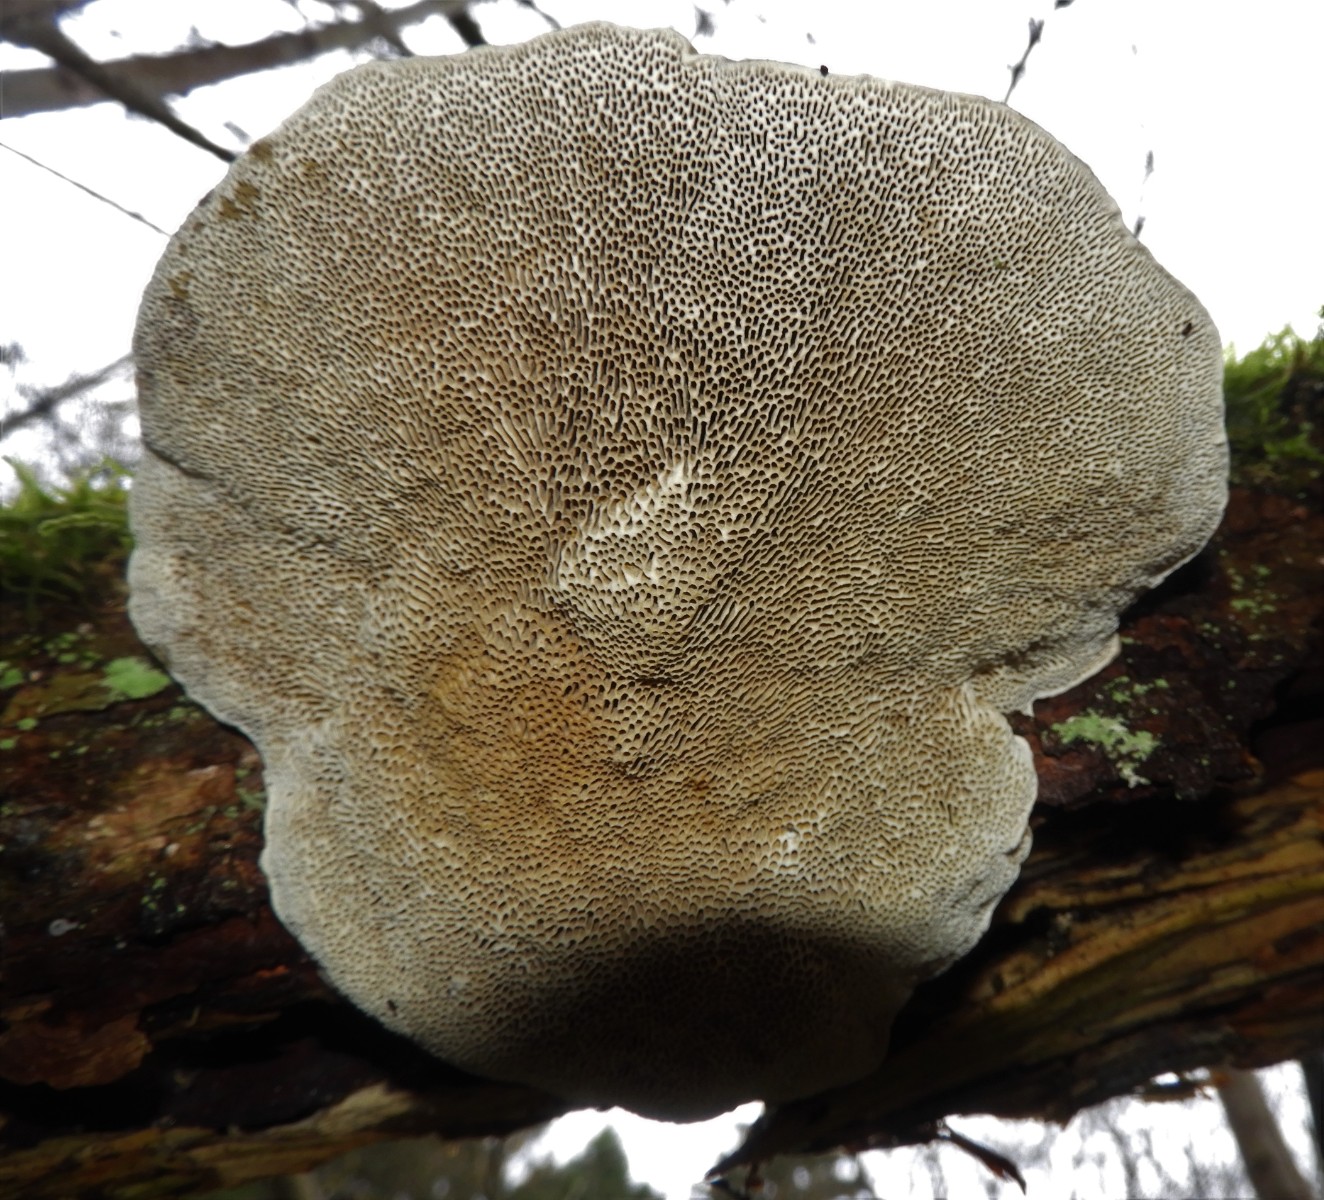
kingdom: Fungi
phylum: Basidiomycota
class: Agaricomycetes
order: Polyporales
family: Polyporaceae
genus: Daedaleopsis
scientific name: Daedaleopsis confragosa
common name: rødmende læderporesvamp
